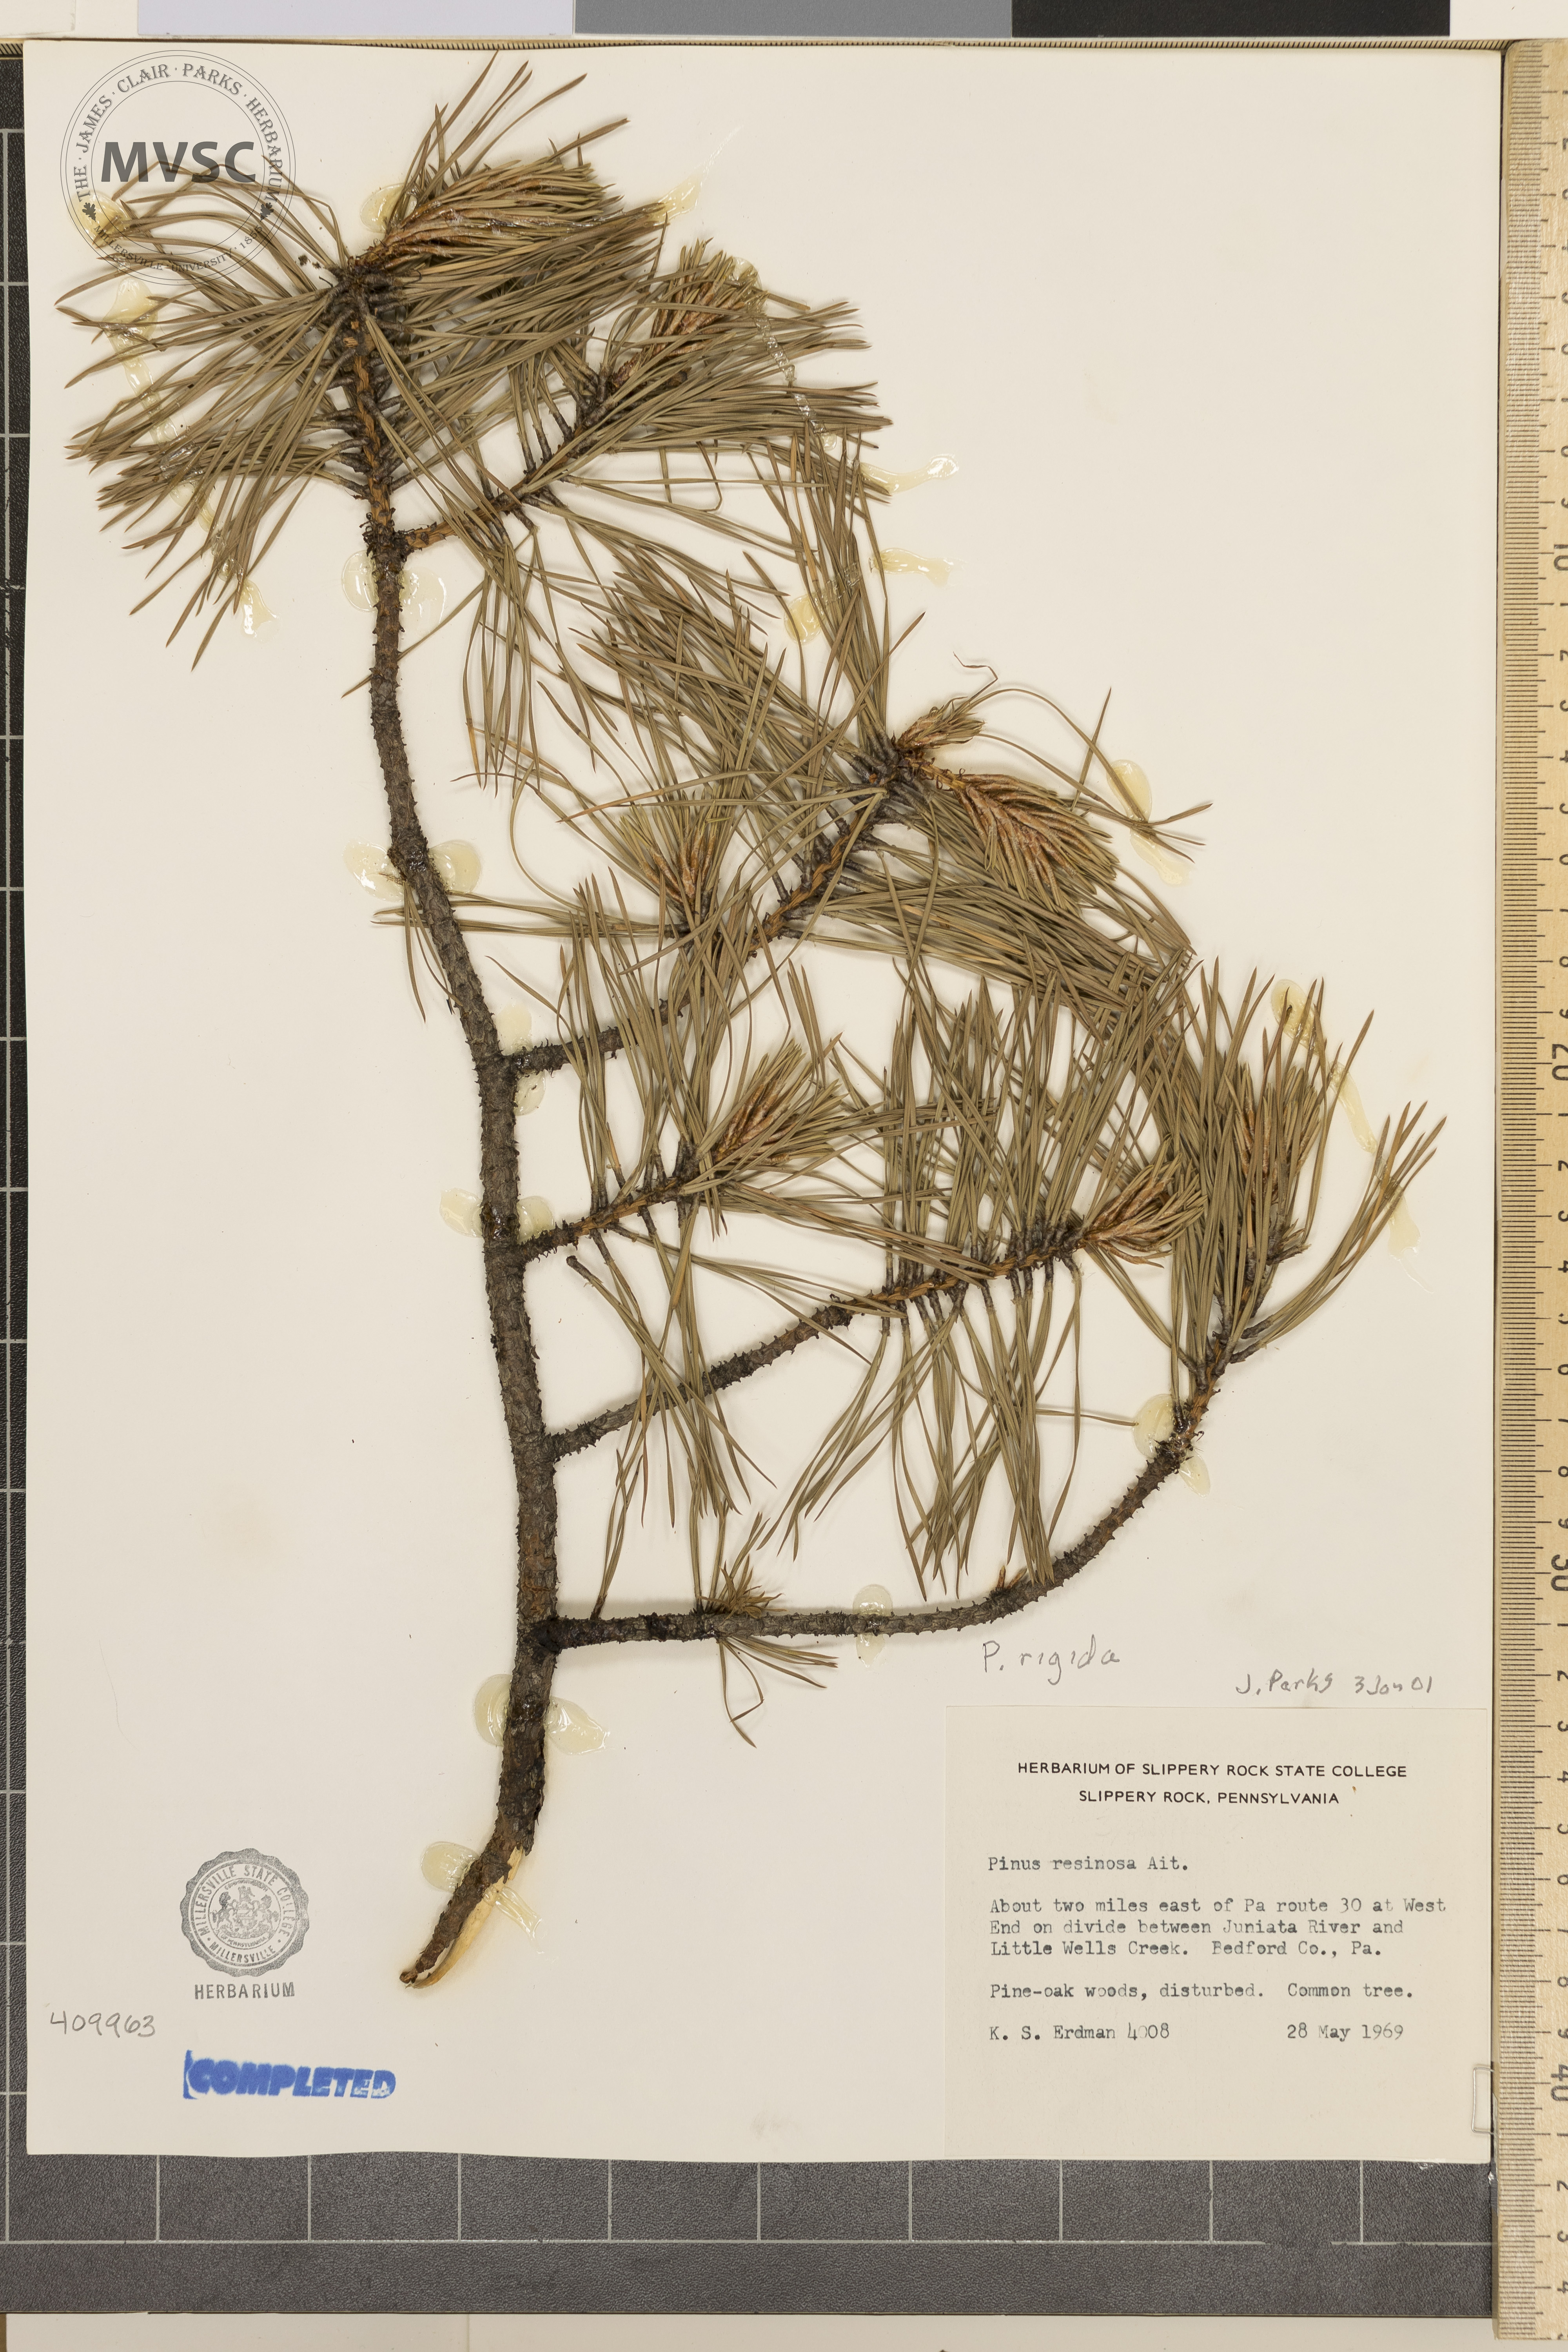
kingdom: Plantae
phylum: Tracheophyta
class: Pinopsida
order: Pinales
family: Pinaceae
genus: Pinus
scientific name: Pinus rigida
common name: Pitch pine
